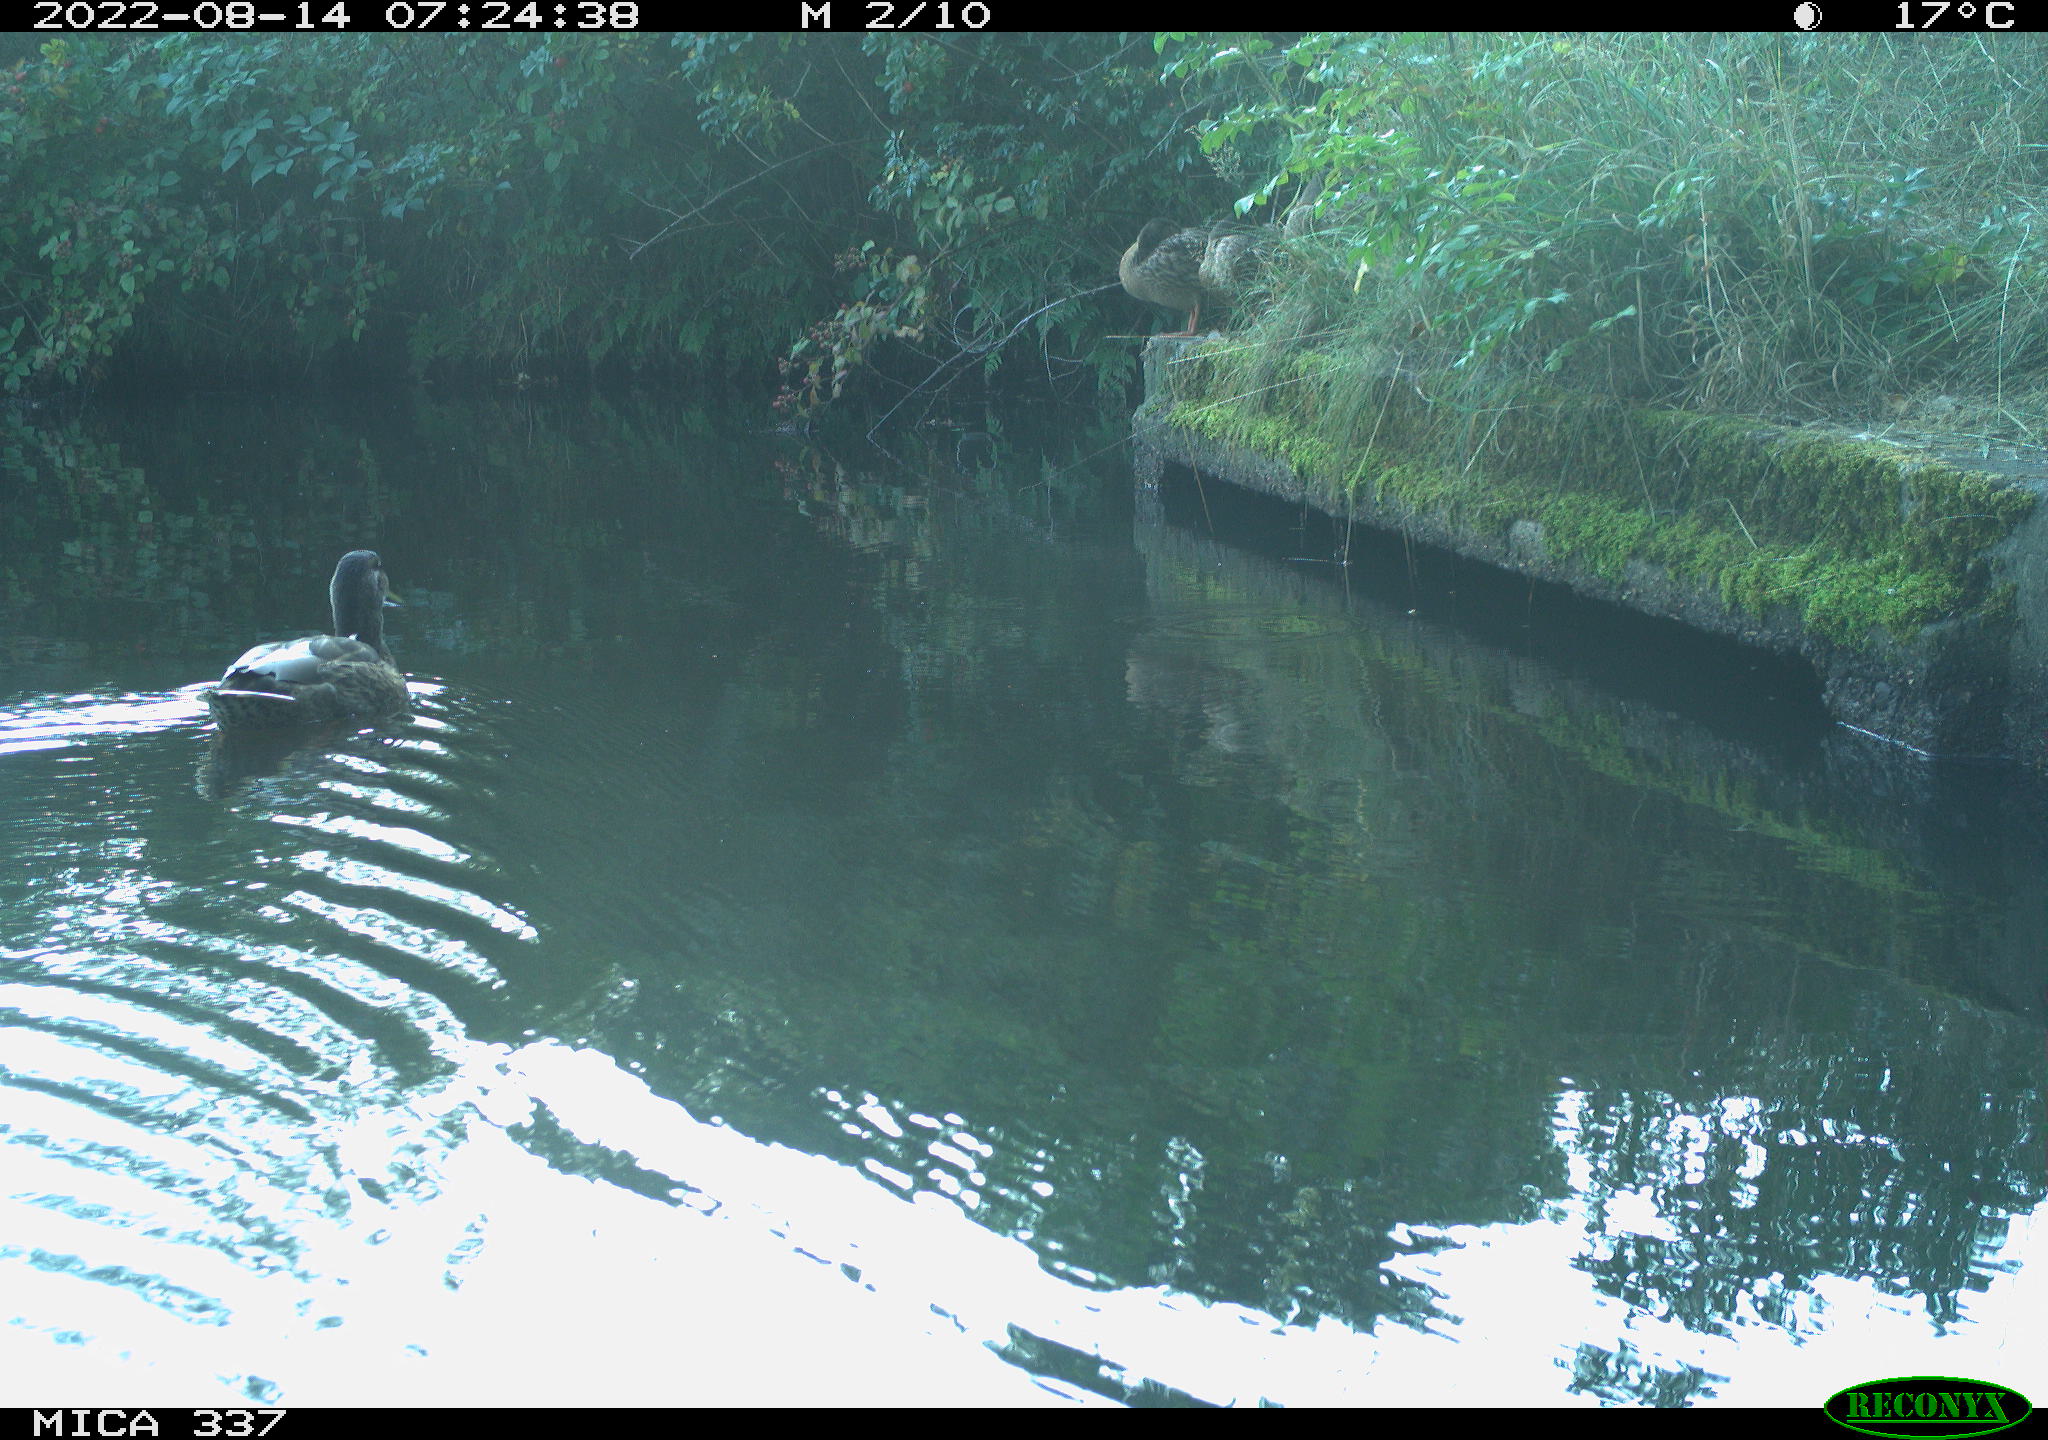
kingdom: Animalia
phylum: Chordata
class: Aves
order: Anseriformes
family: Anatidae
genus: Anas
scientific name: Anas platyrhynchos
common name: Mallard
